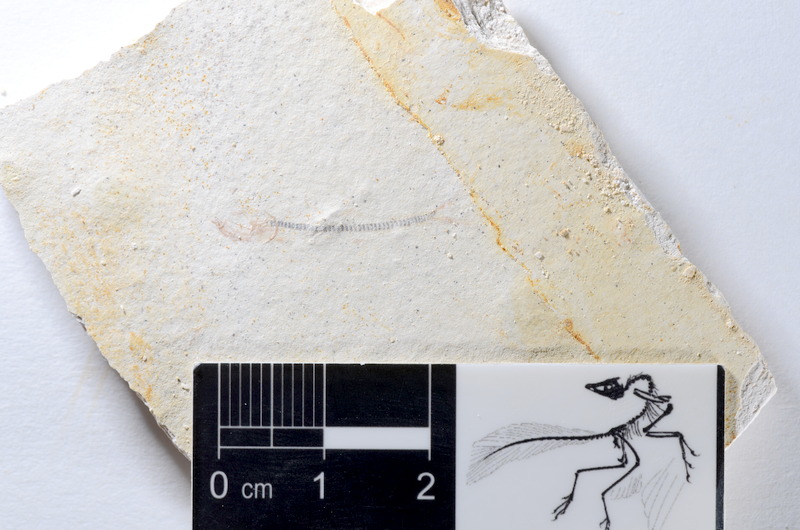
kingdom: Animalia
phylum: Chordata
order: Salmoniformes
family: Orthogonikleithridae
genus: Orthogonikleithrus
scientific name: Orthogonikleithrus hoelli
